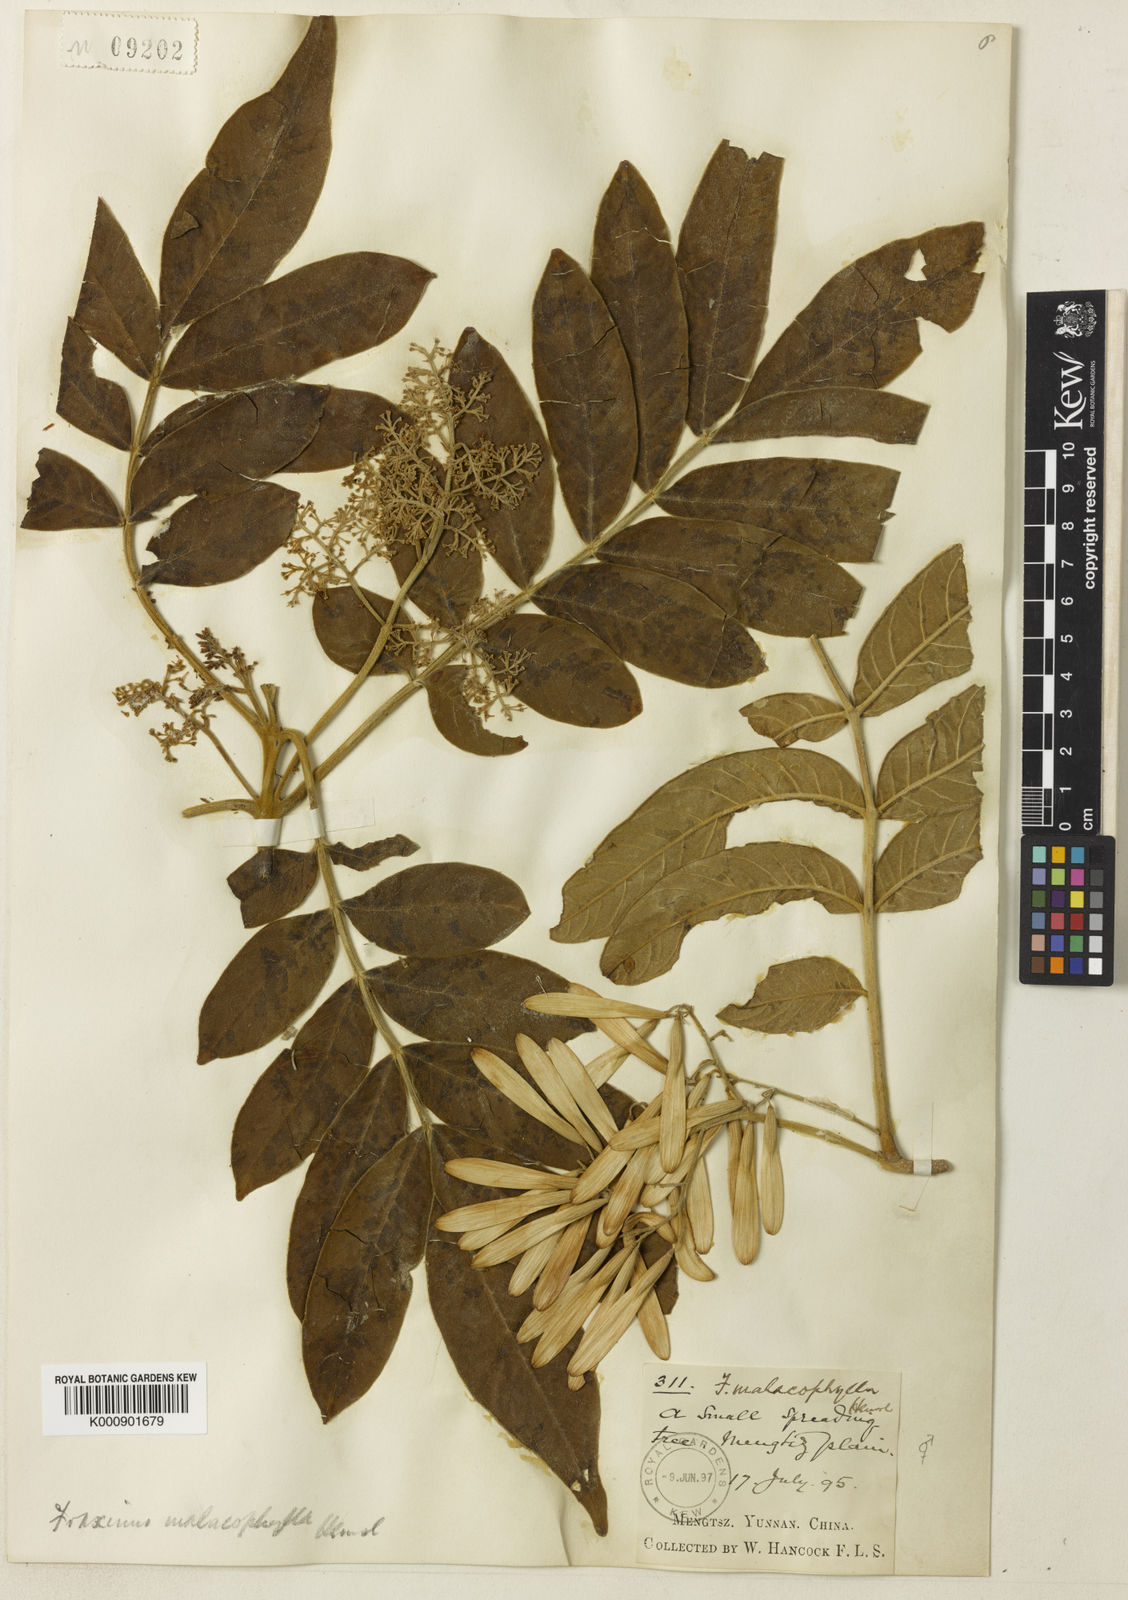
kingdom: Plantae
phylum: Tracheophyta
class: Magnoliopsida
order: Lamiales
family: Oleaceae
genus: Fraxinus
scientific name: Fraxinus malacophylla
